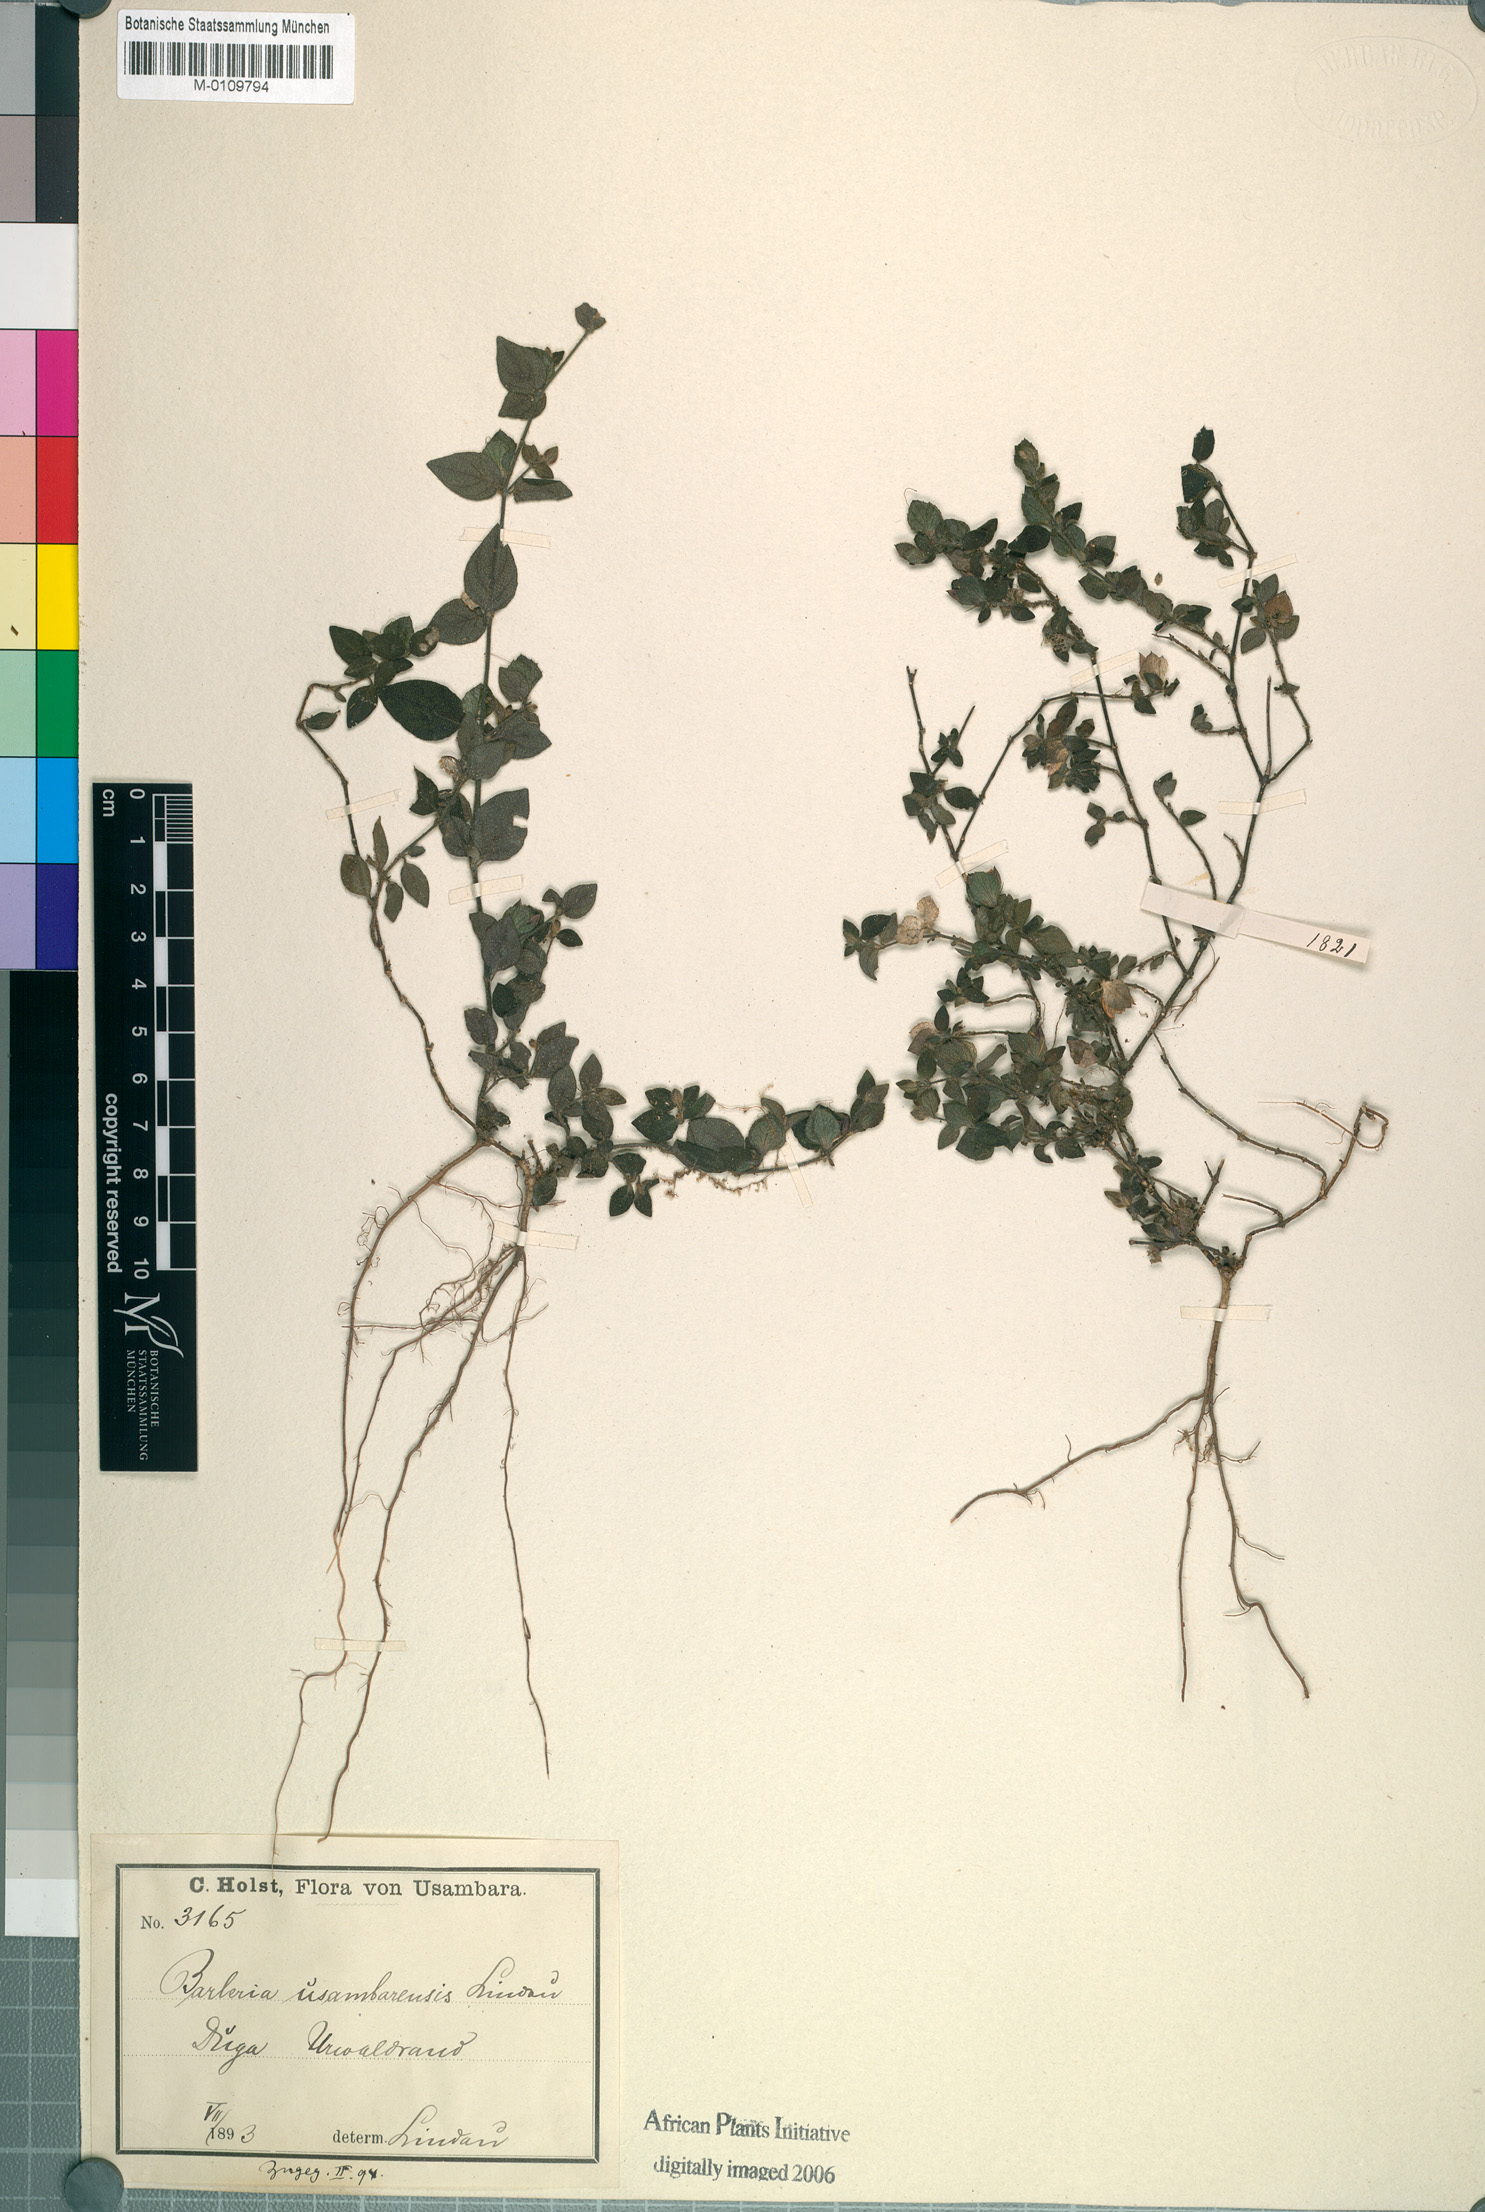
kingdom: Plantae
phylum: Tracheophyta
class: Magnoliopsida
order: Lamiales
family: Acanthaceae
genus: Barleria
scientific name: Barleria usambarica
